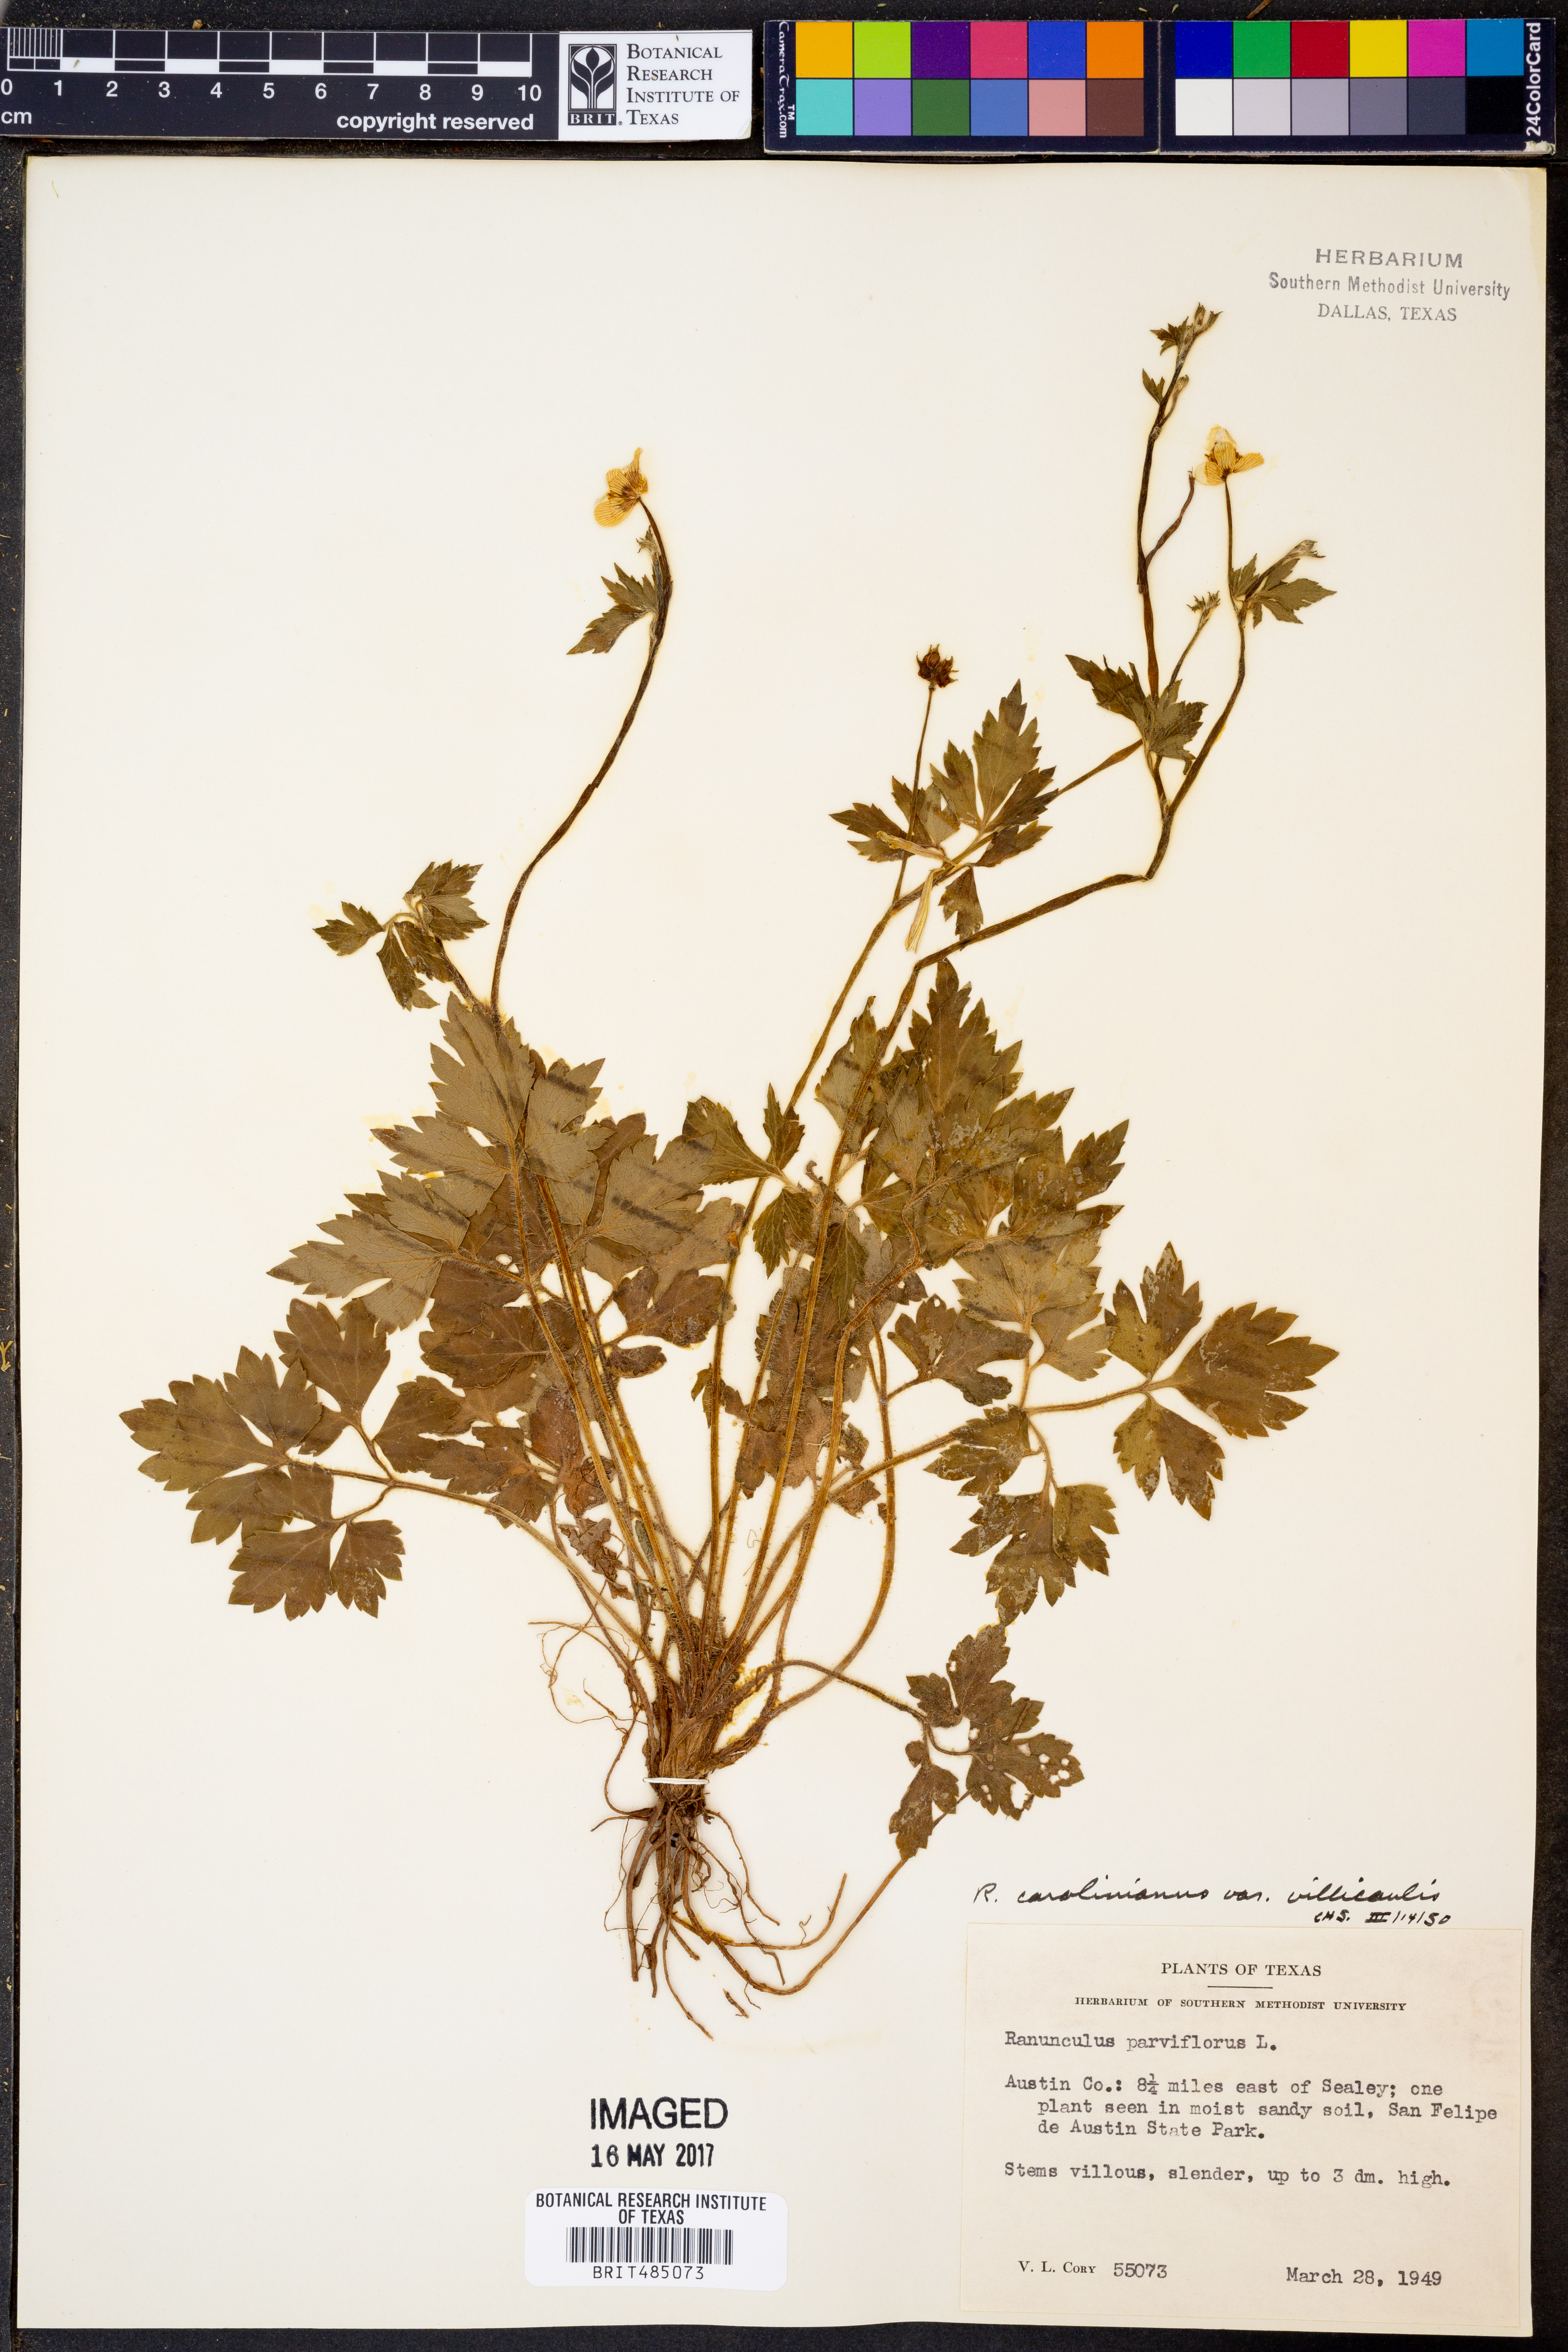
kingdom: Plantae
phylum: Tracheophyta
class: Magnoliopsida
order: Ranunculales
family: Ranunculaceae
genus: Ranunculus
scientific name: Ranunculus parviflorus
